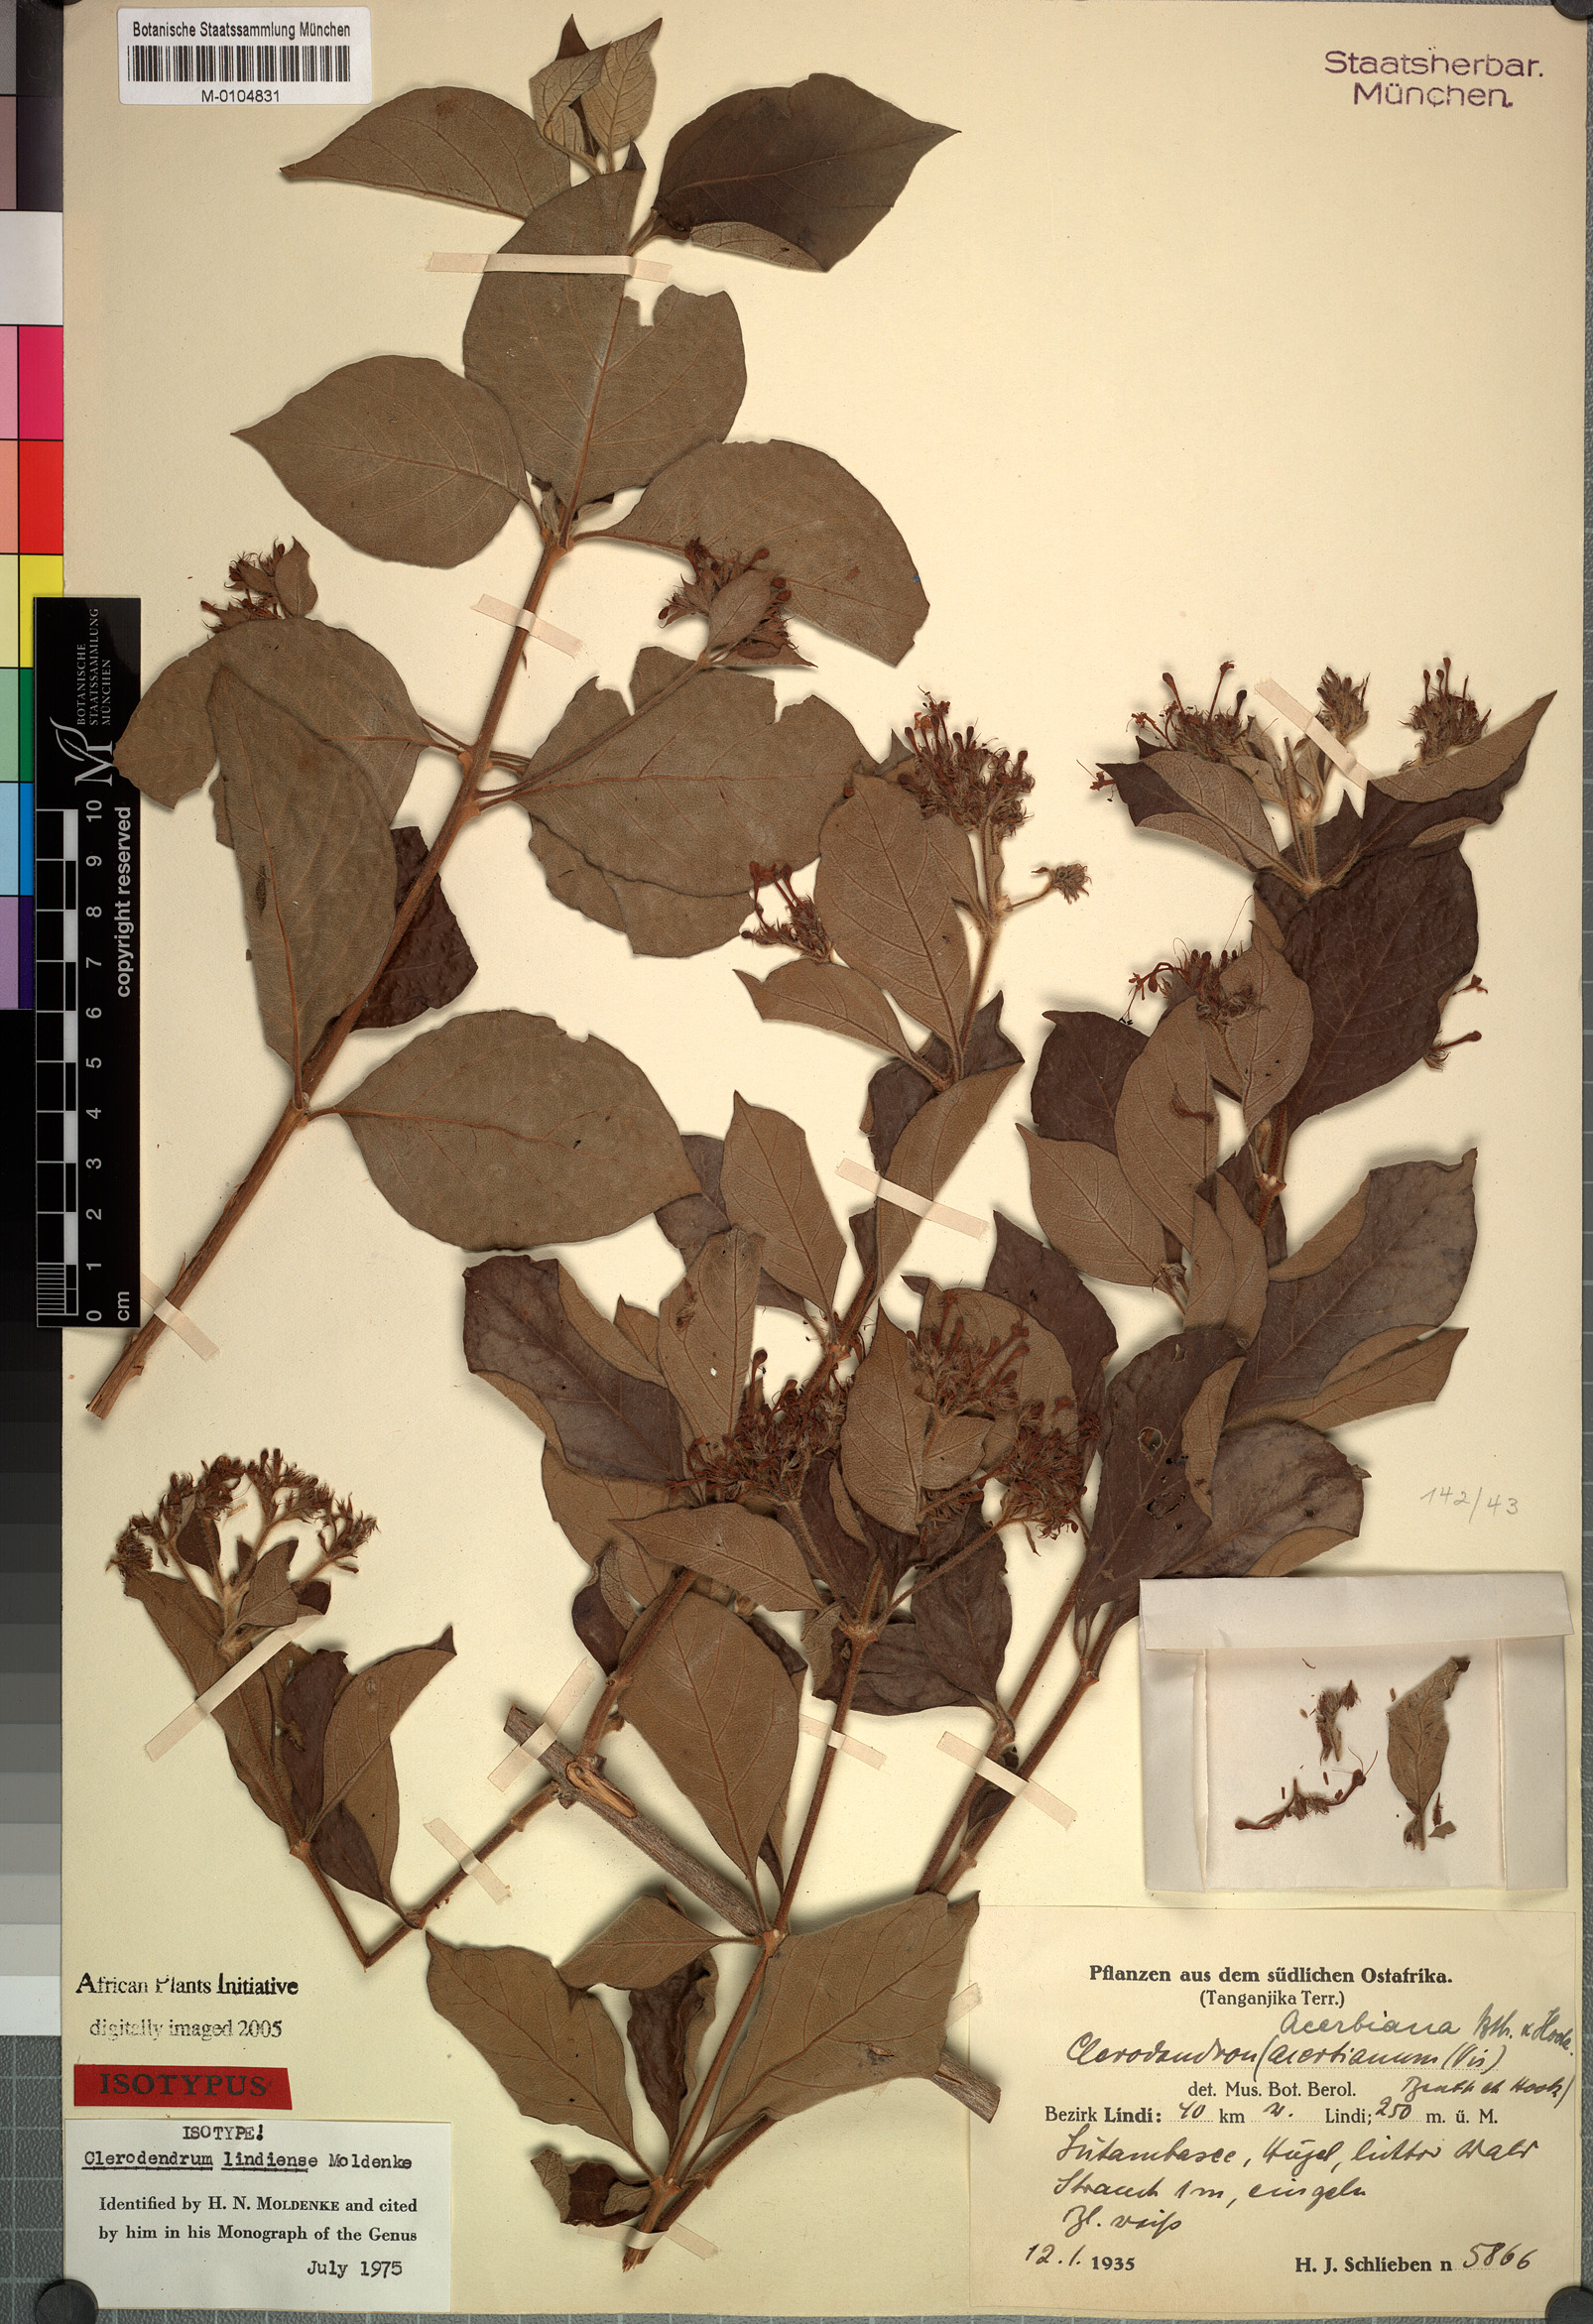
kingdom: Plantae
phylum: Tracheophyta
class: Magnoliopsida
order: Lamiales
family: Lamiaceae
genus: Clerodendrum
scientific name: Clerodendrum tricholobum
